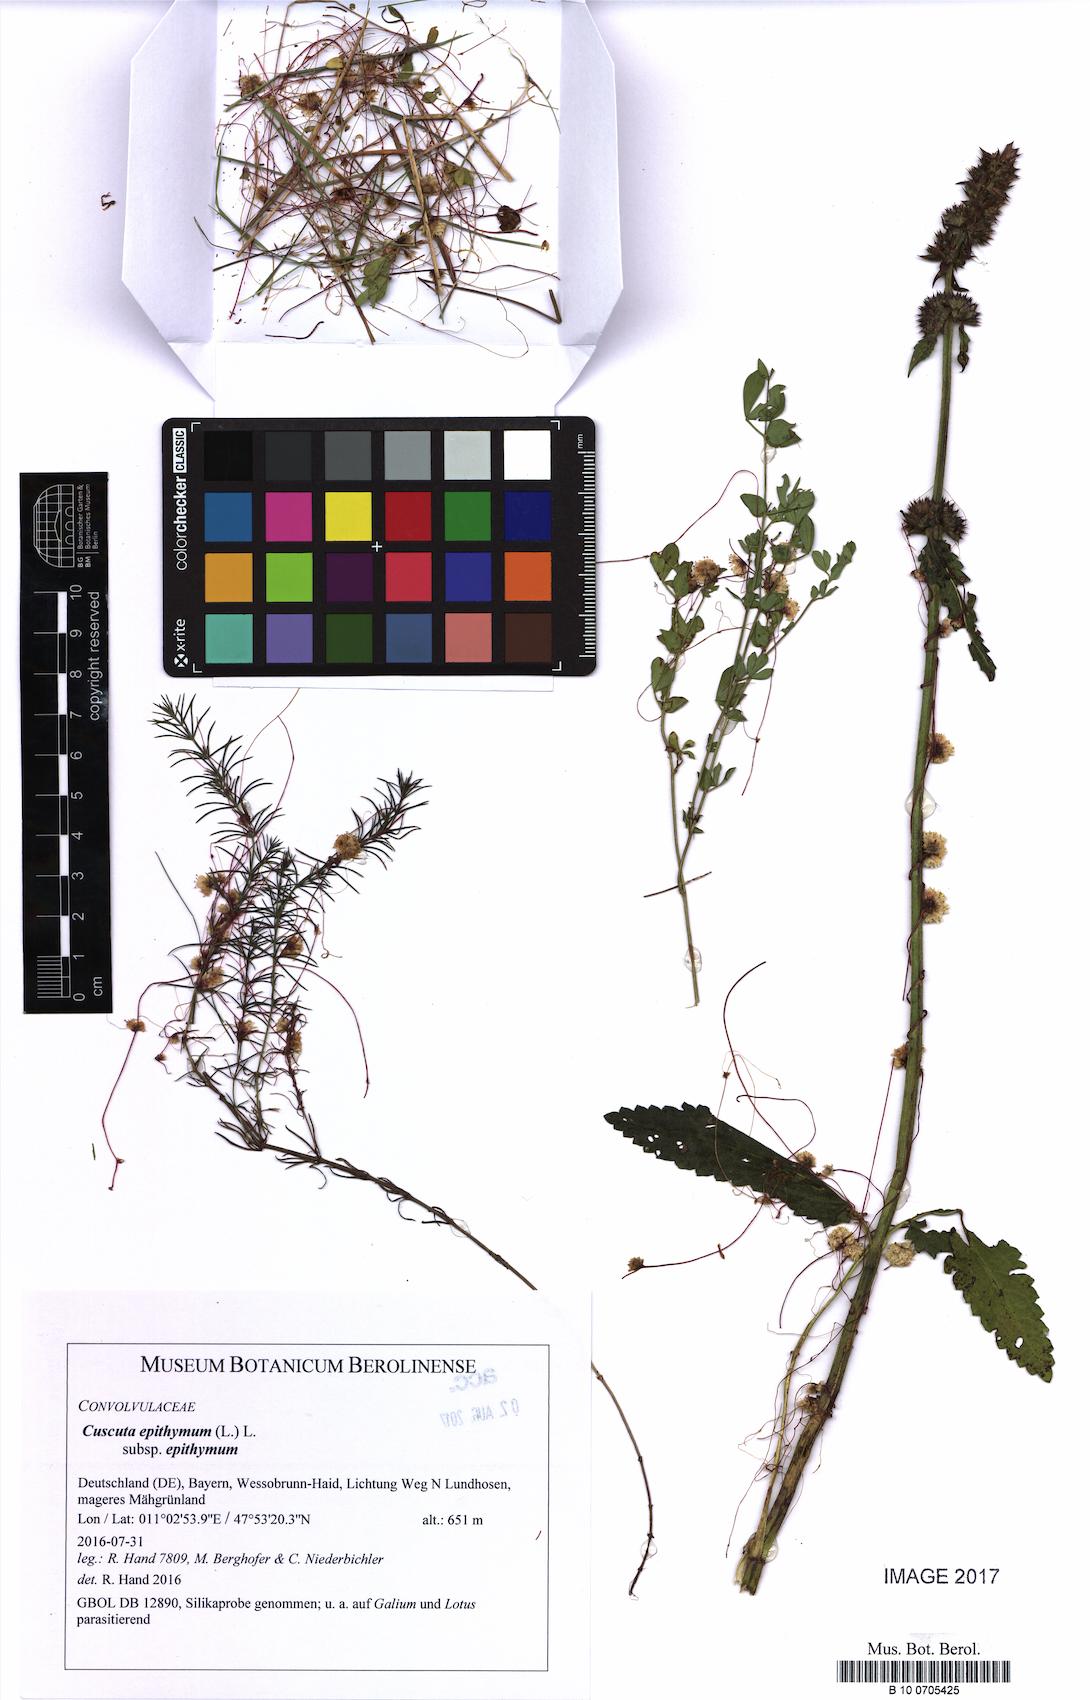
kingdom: Plantae
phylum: Tracheophyta
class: Magnoliopsida
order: Solanales
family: Convolvulaceae
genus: Cuscuta
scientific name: Cuscuta epithymum
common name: Clover dodder
